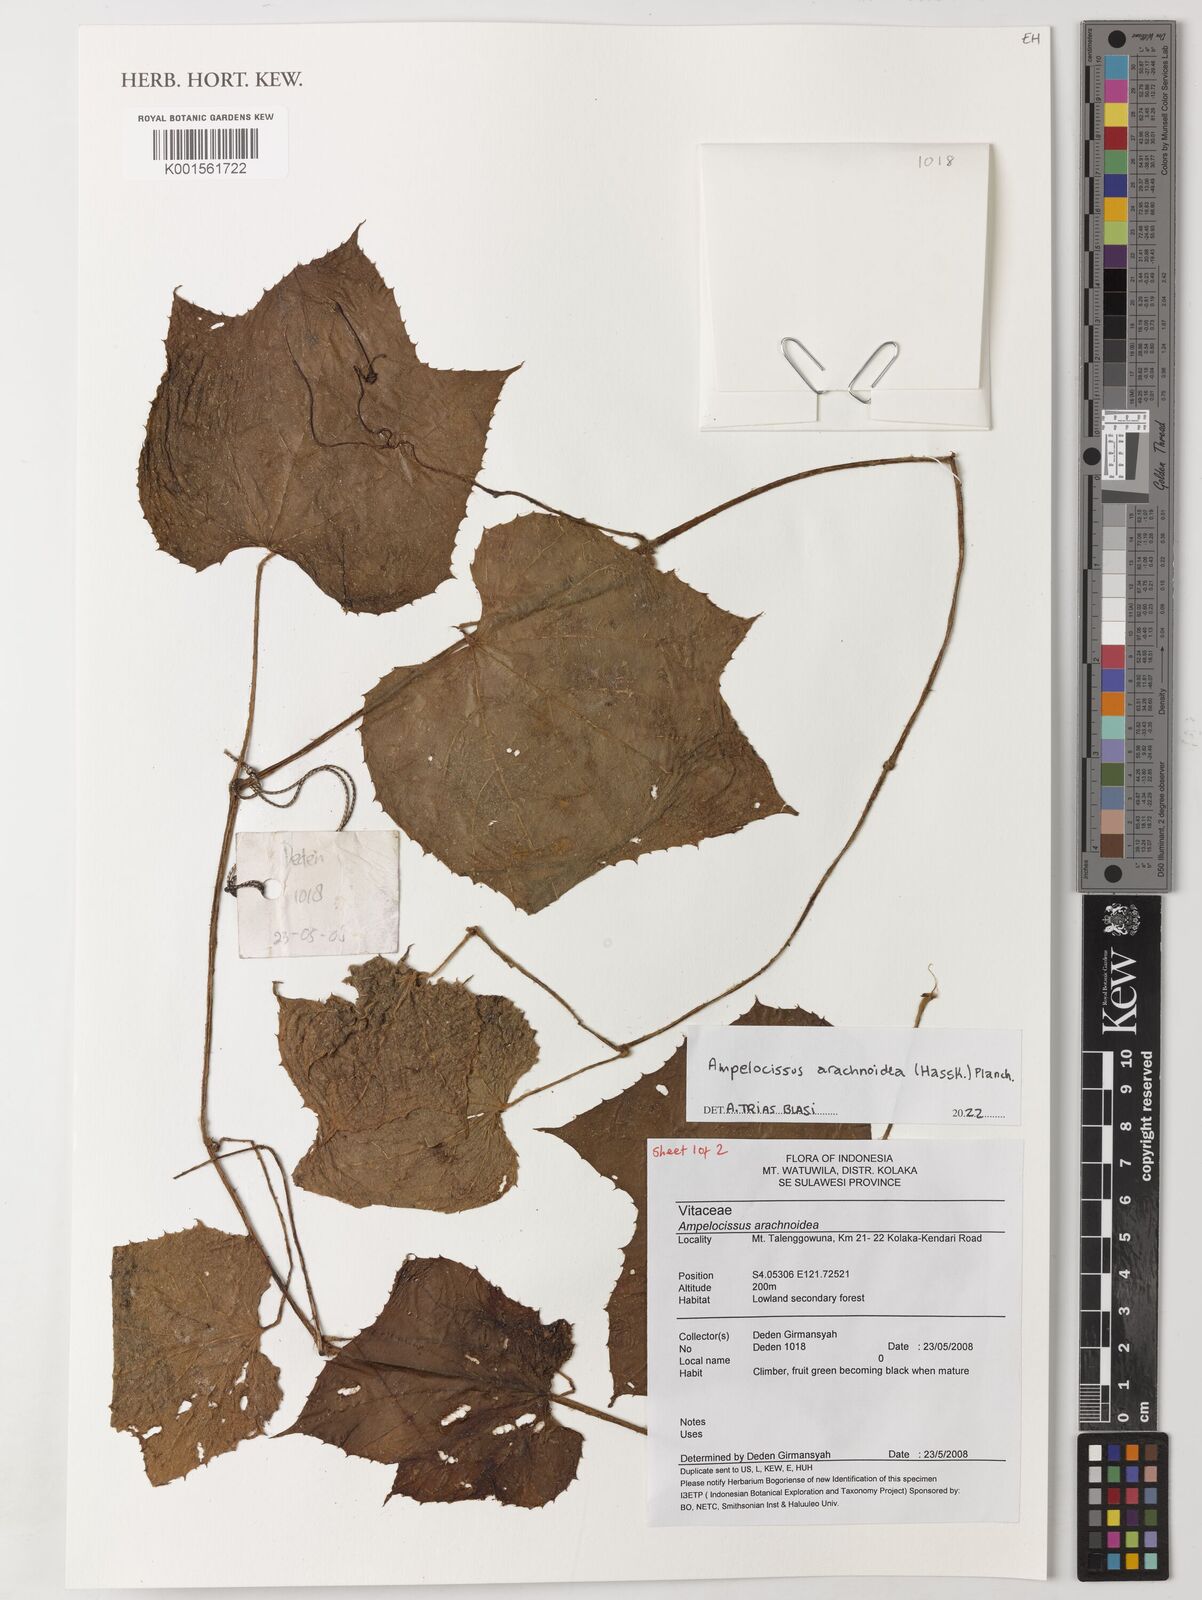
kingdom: Plantae
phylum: Tracheophyta
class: Magnoliopsida
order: Vitales
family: Vitaceae
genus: Ampelocissus
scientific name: Ampelocissus arachnoidea
